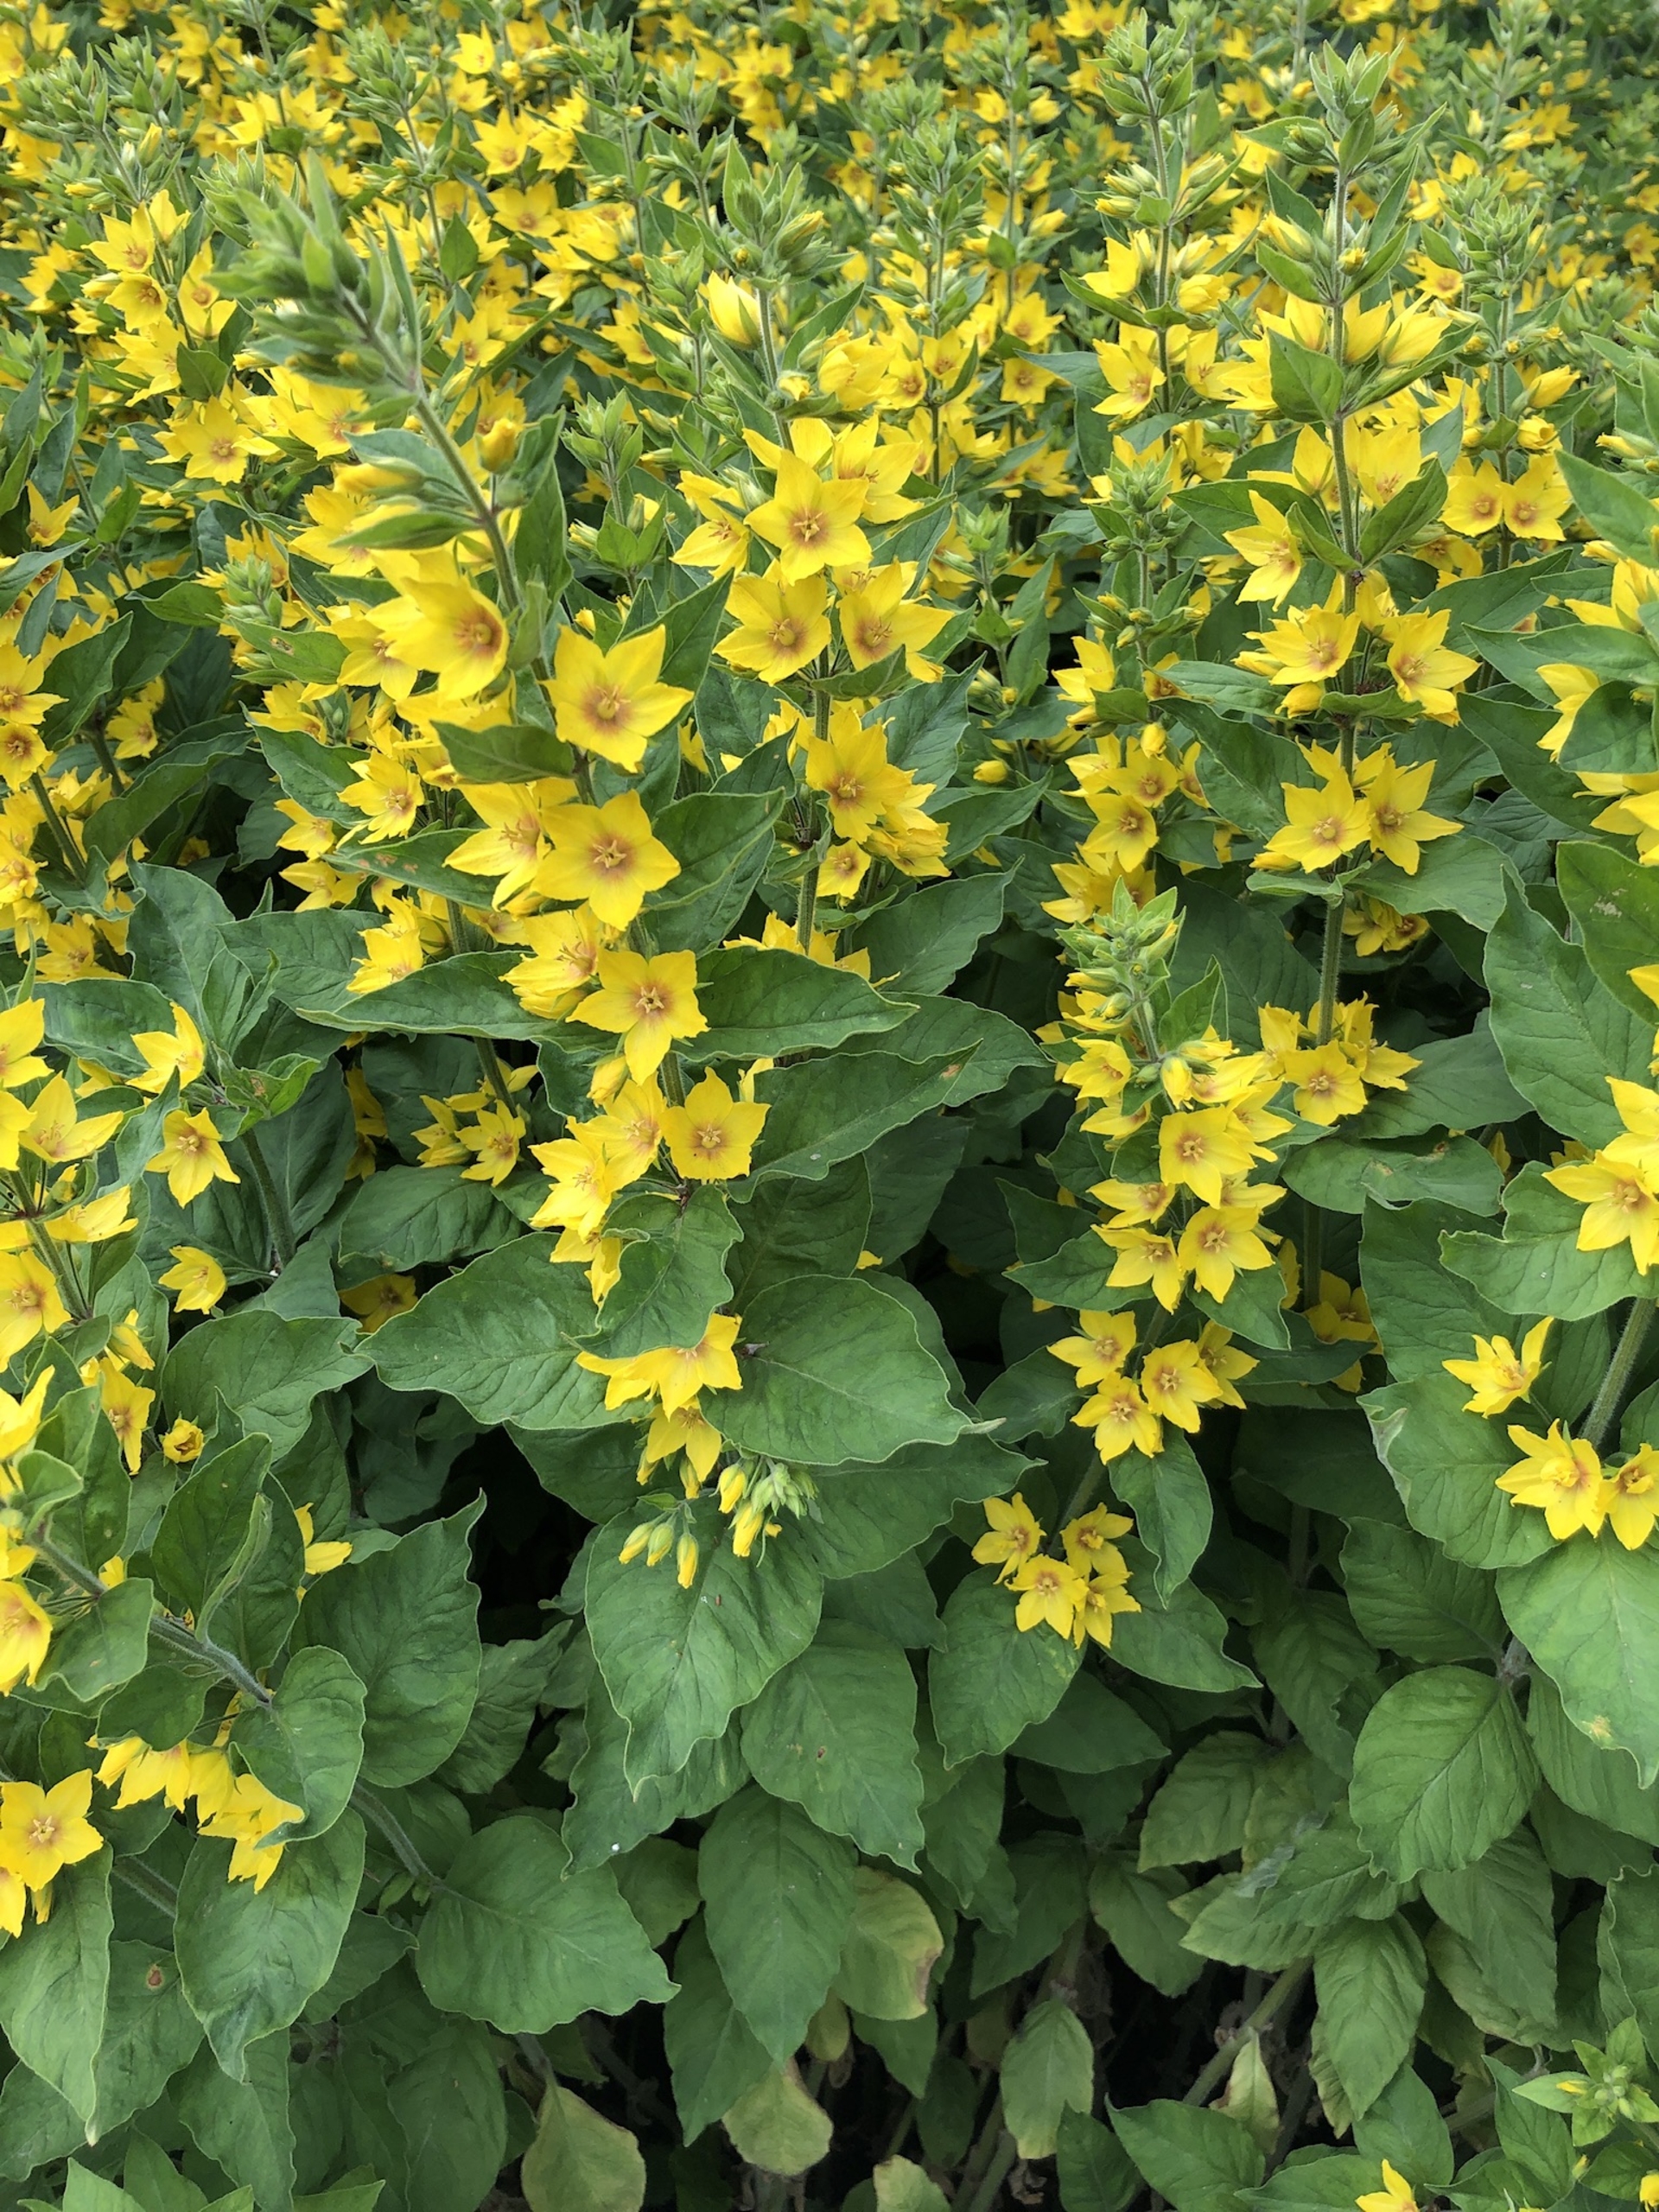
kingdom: Plantae
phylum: Tracheophyta
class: Magnoliopsida
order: Ericales
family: Primulaceae
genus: Lysimachia
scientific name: Lysimachia punctata
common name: Prikbladet fredløs
